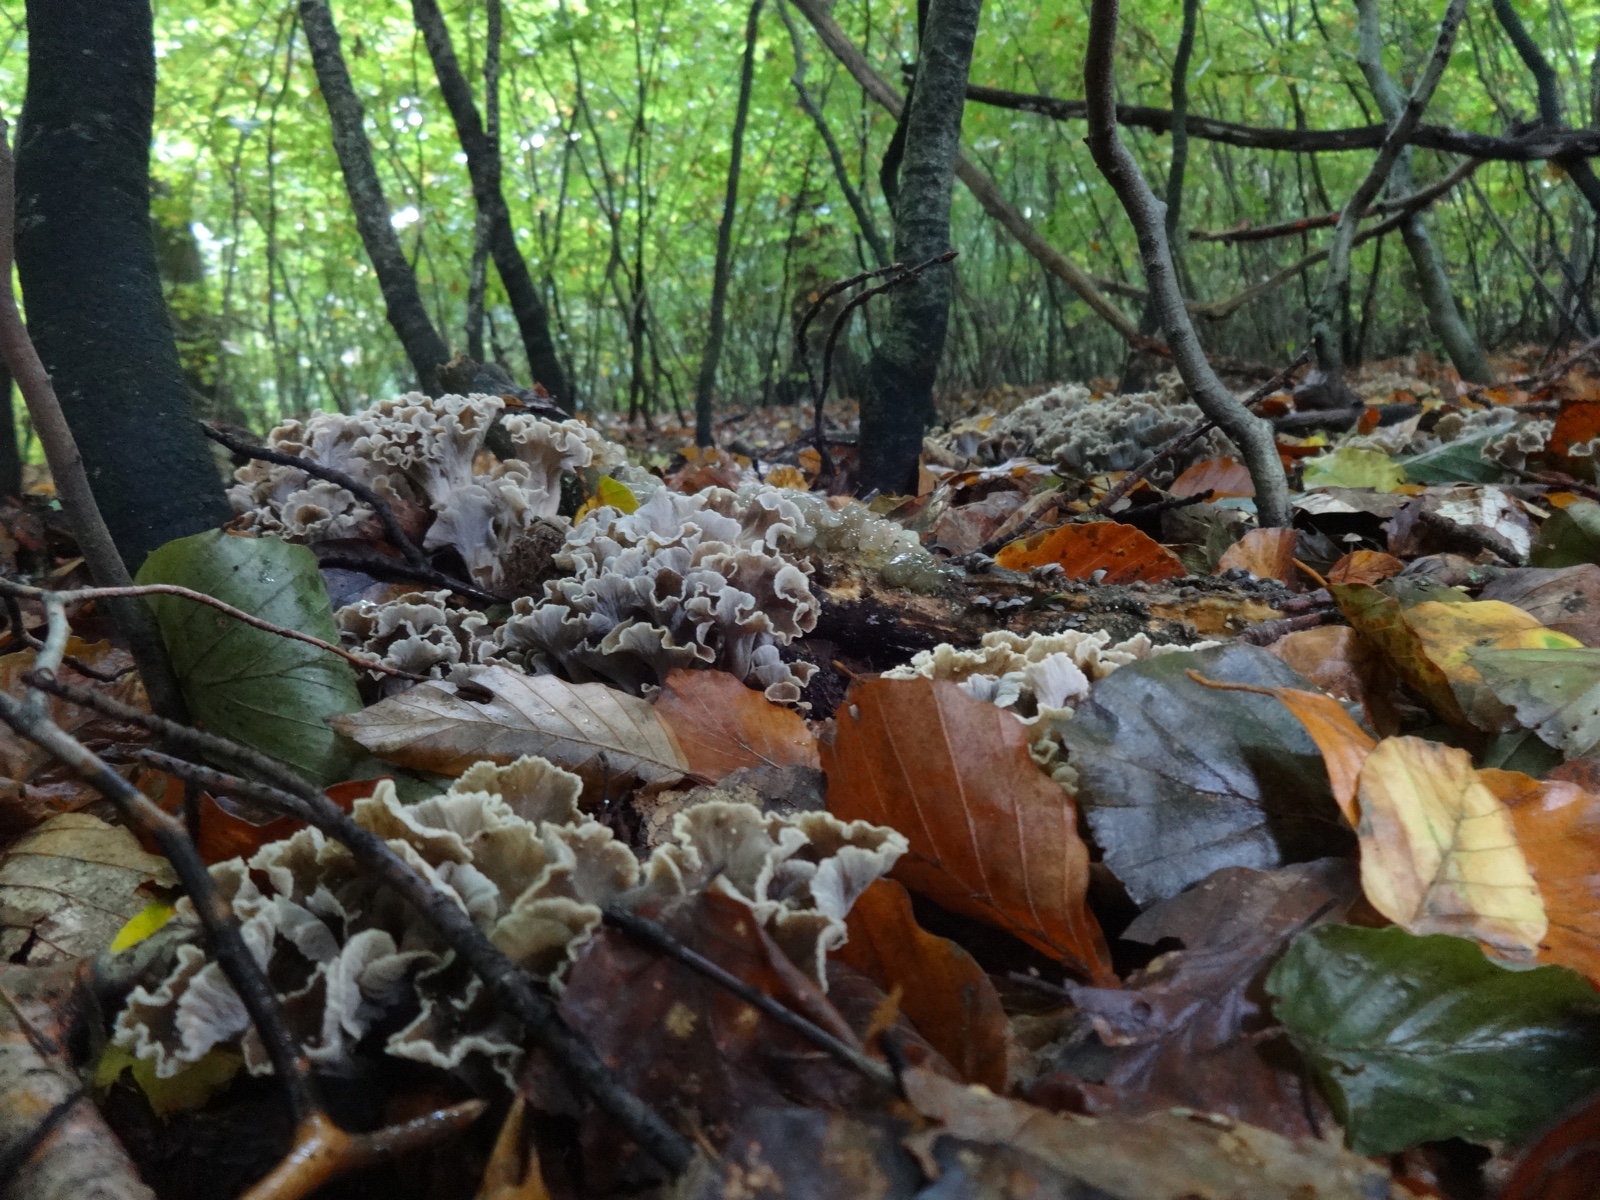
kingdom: Fungi
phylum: Basidiomycota
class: Agaricomycetes
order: Cantharellales
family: Hydnaceae
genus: Craterellus
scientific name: Craterellus undulatus
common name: liden kantarel
